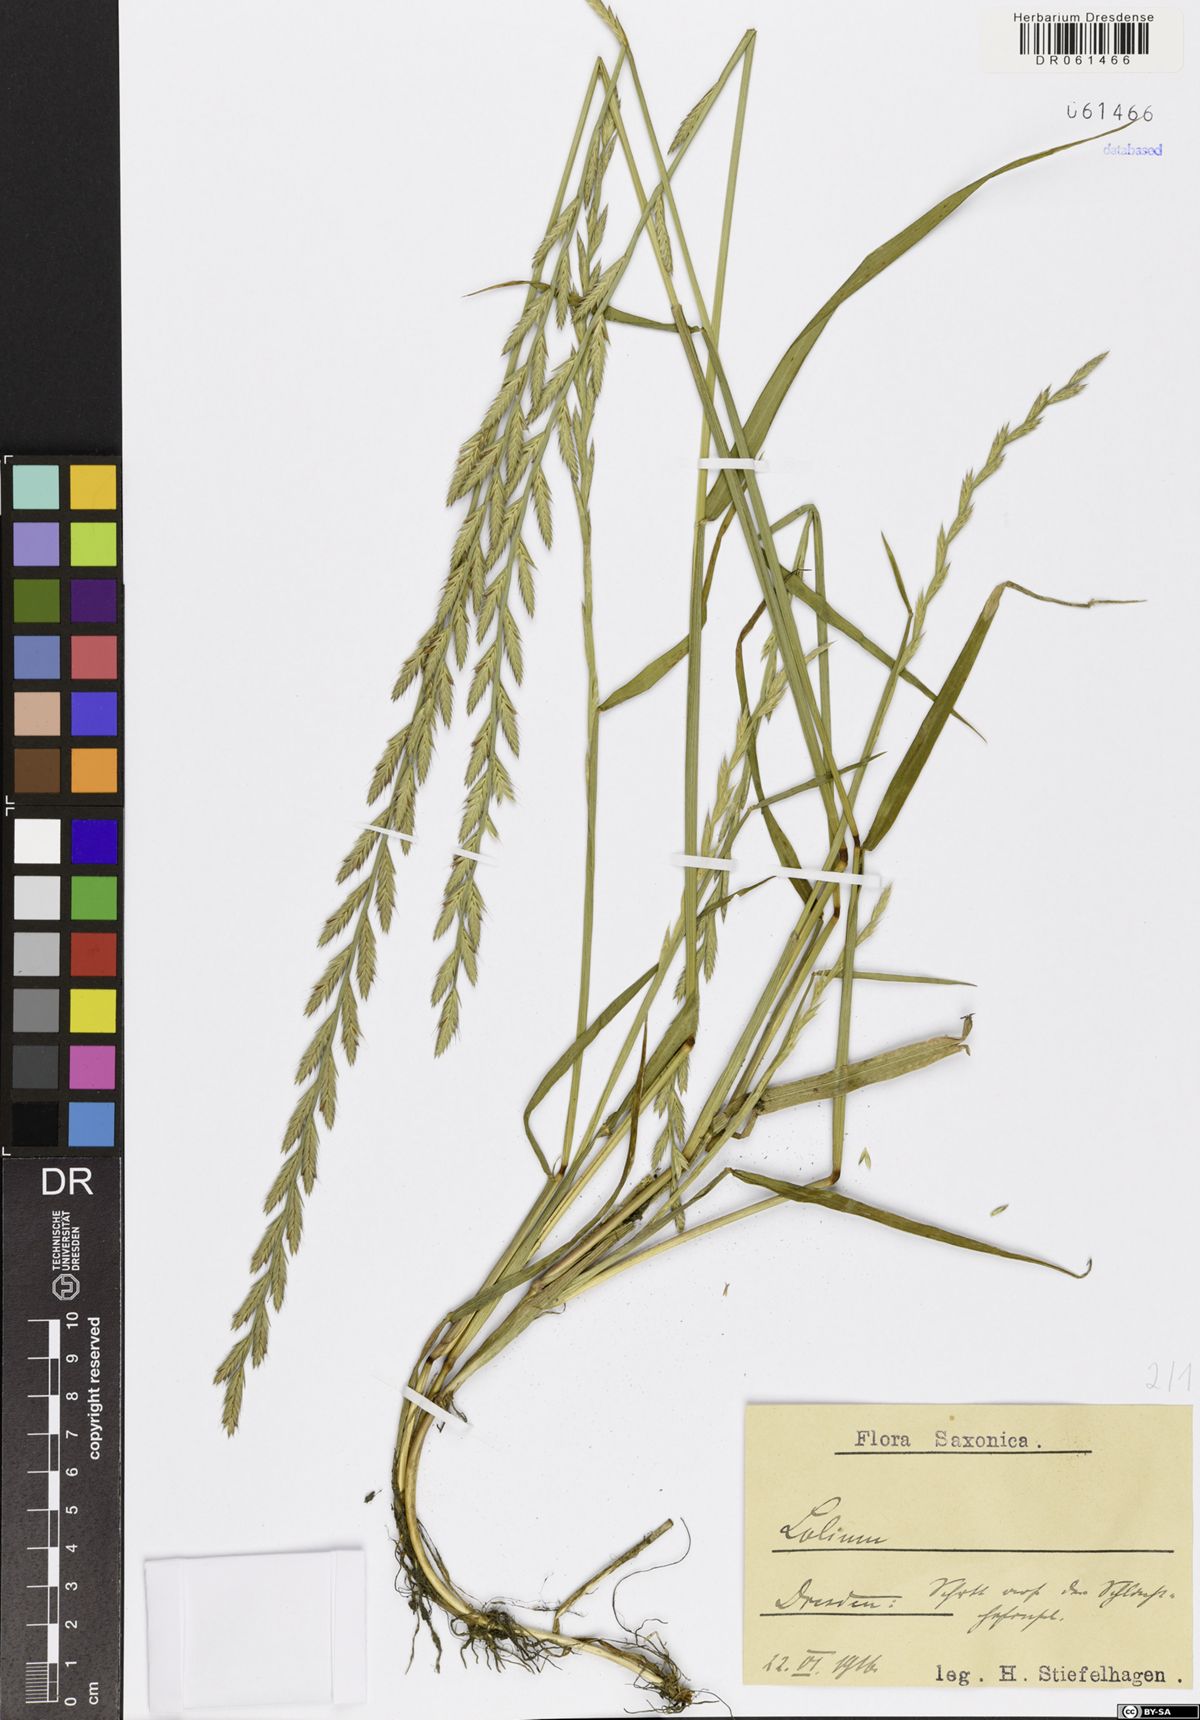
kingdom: Plantae
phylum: Tracheophyta
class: Liliopsida
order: Poales
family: Poaceae
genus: Lolium
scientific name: Lolium
